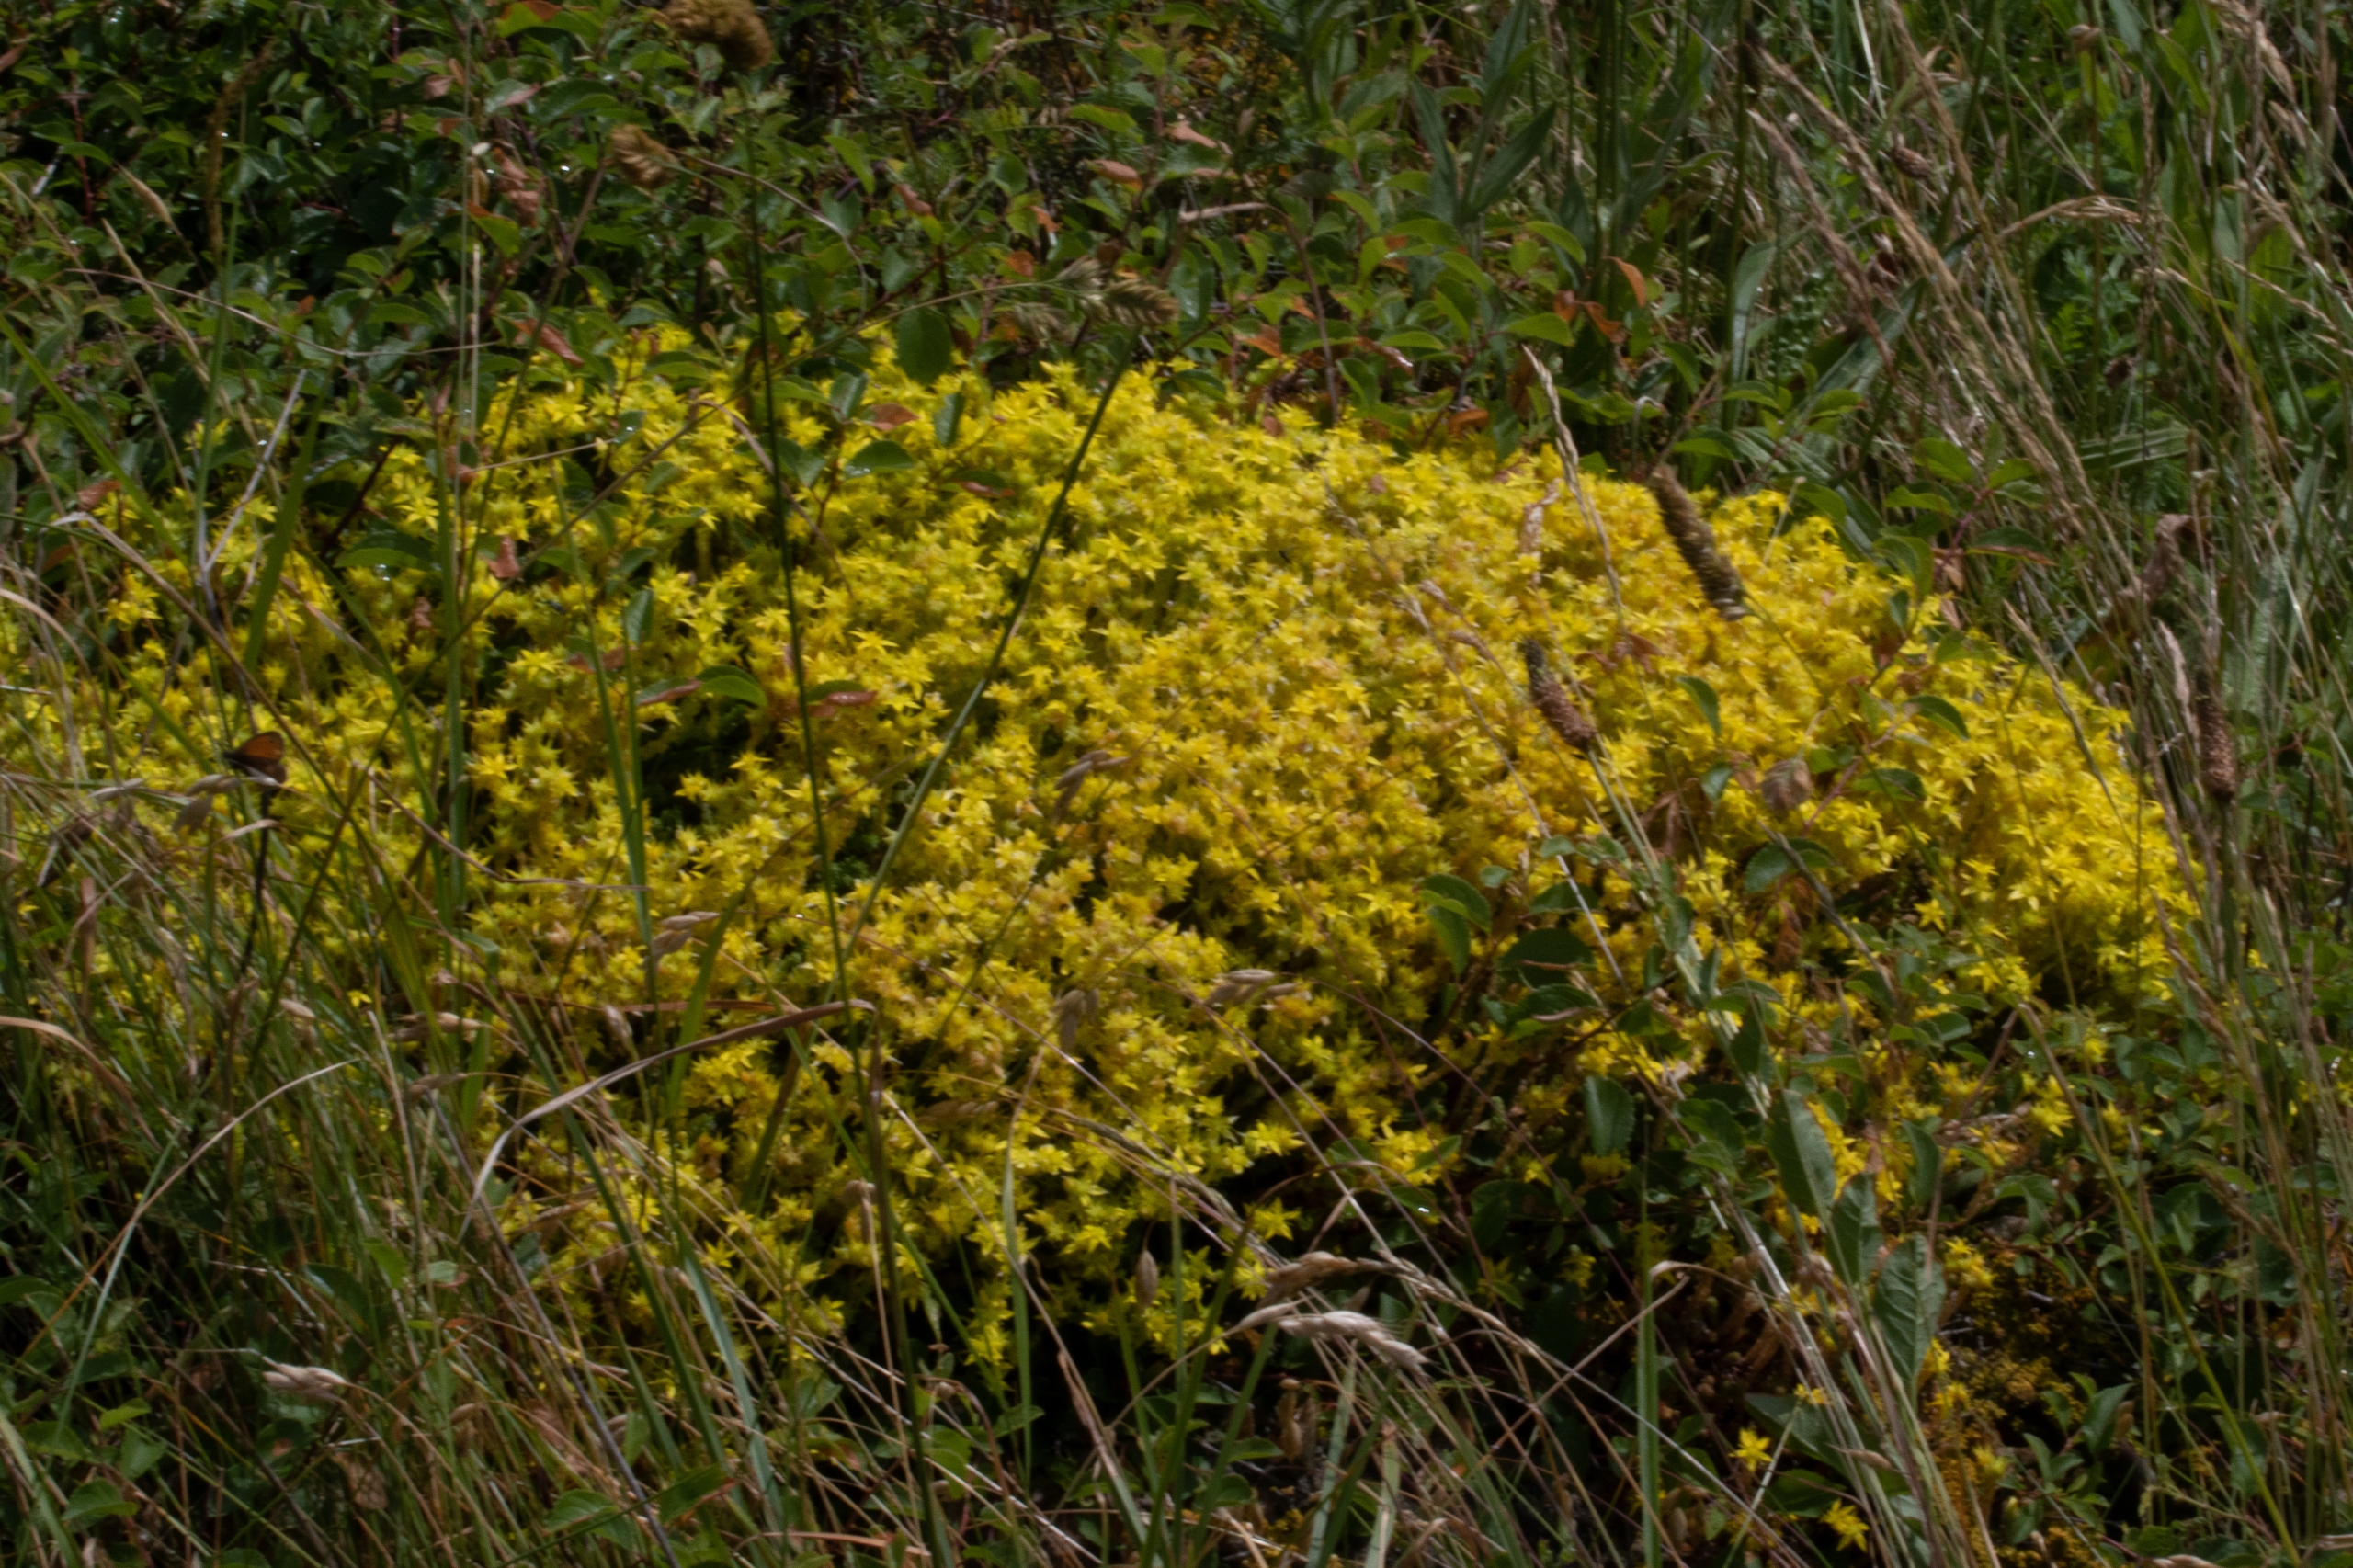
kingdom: Plantae
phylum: Tracheophyta
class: Magnoliopsida
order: Saxifragales
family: Crassulaceae
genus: Sedum
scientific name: Sedum acre
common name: Bidende stenurt
